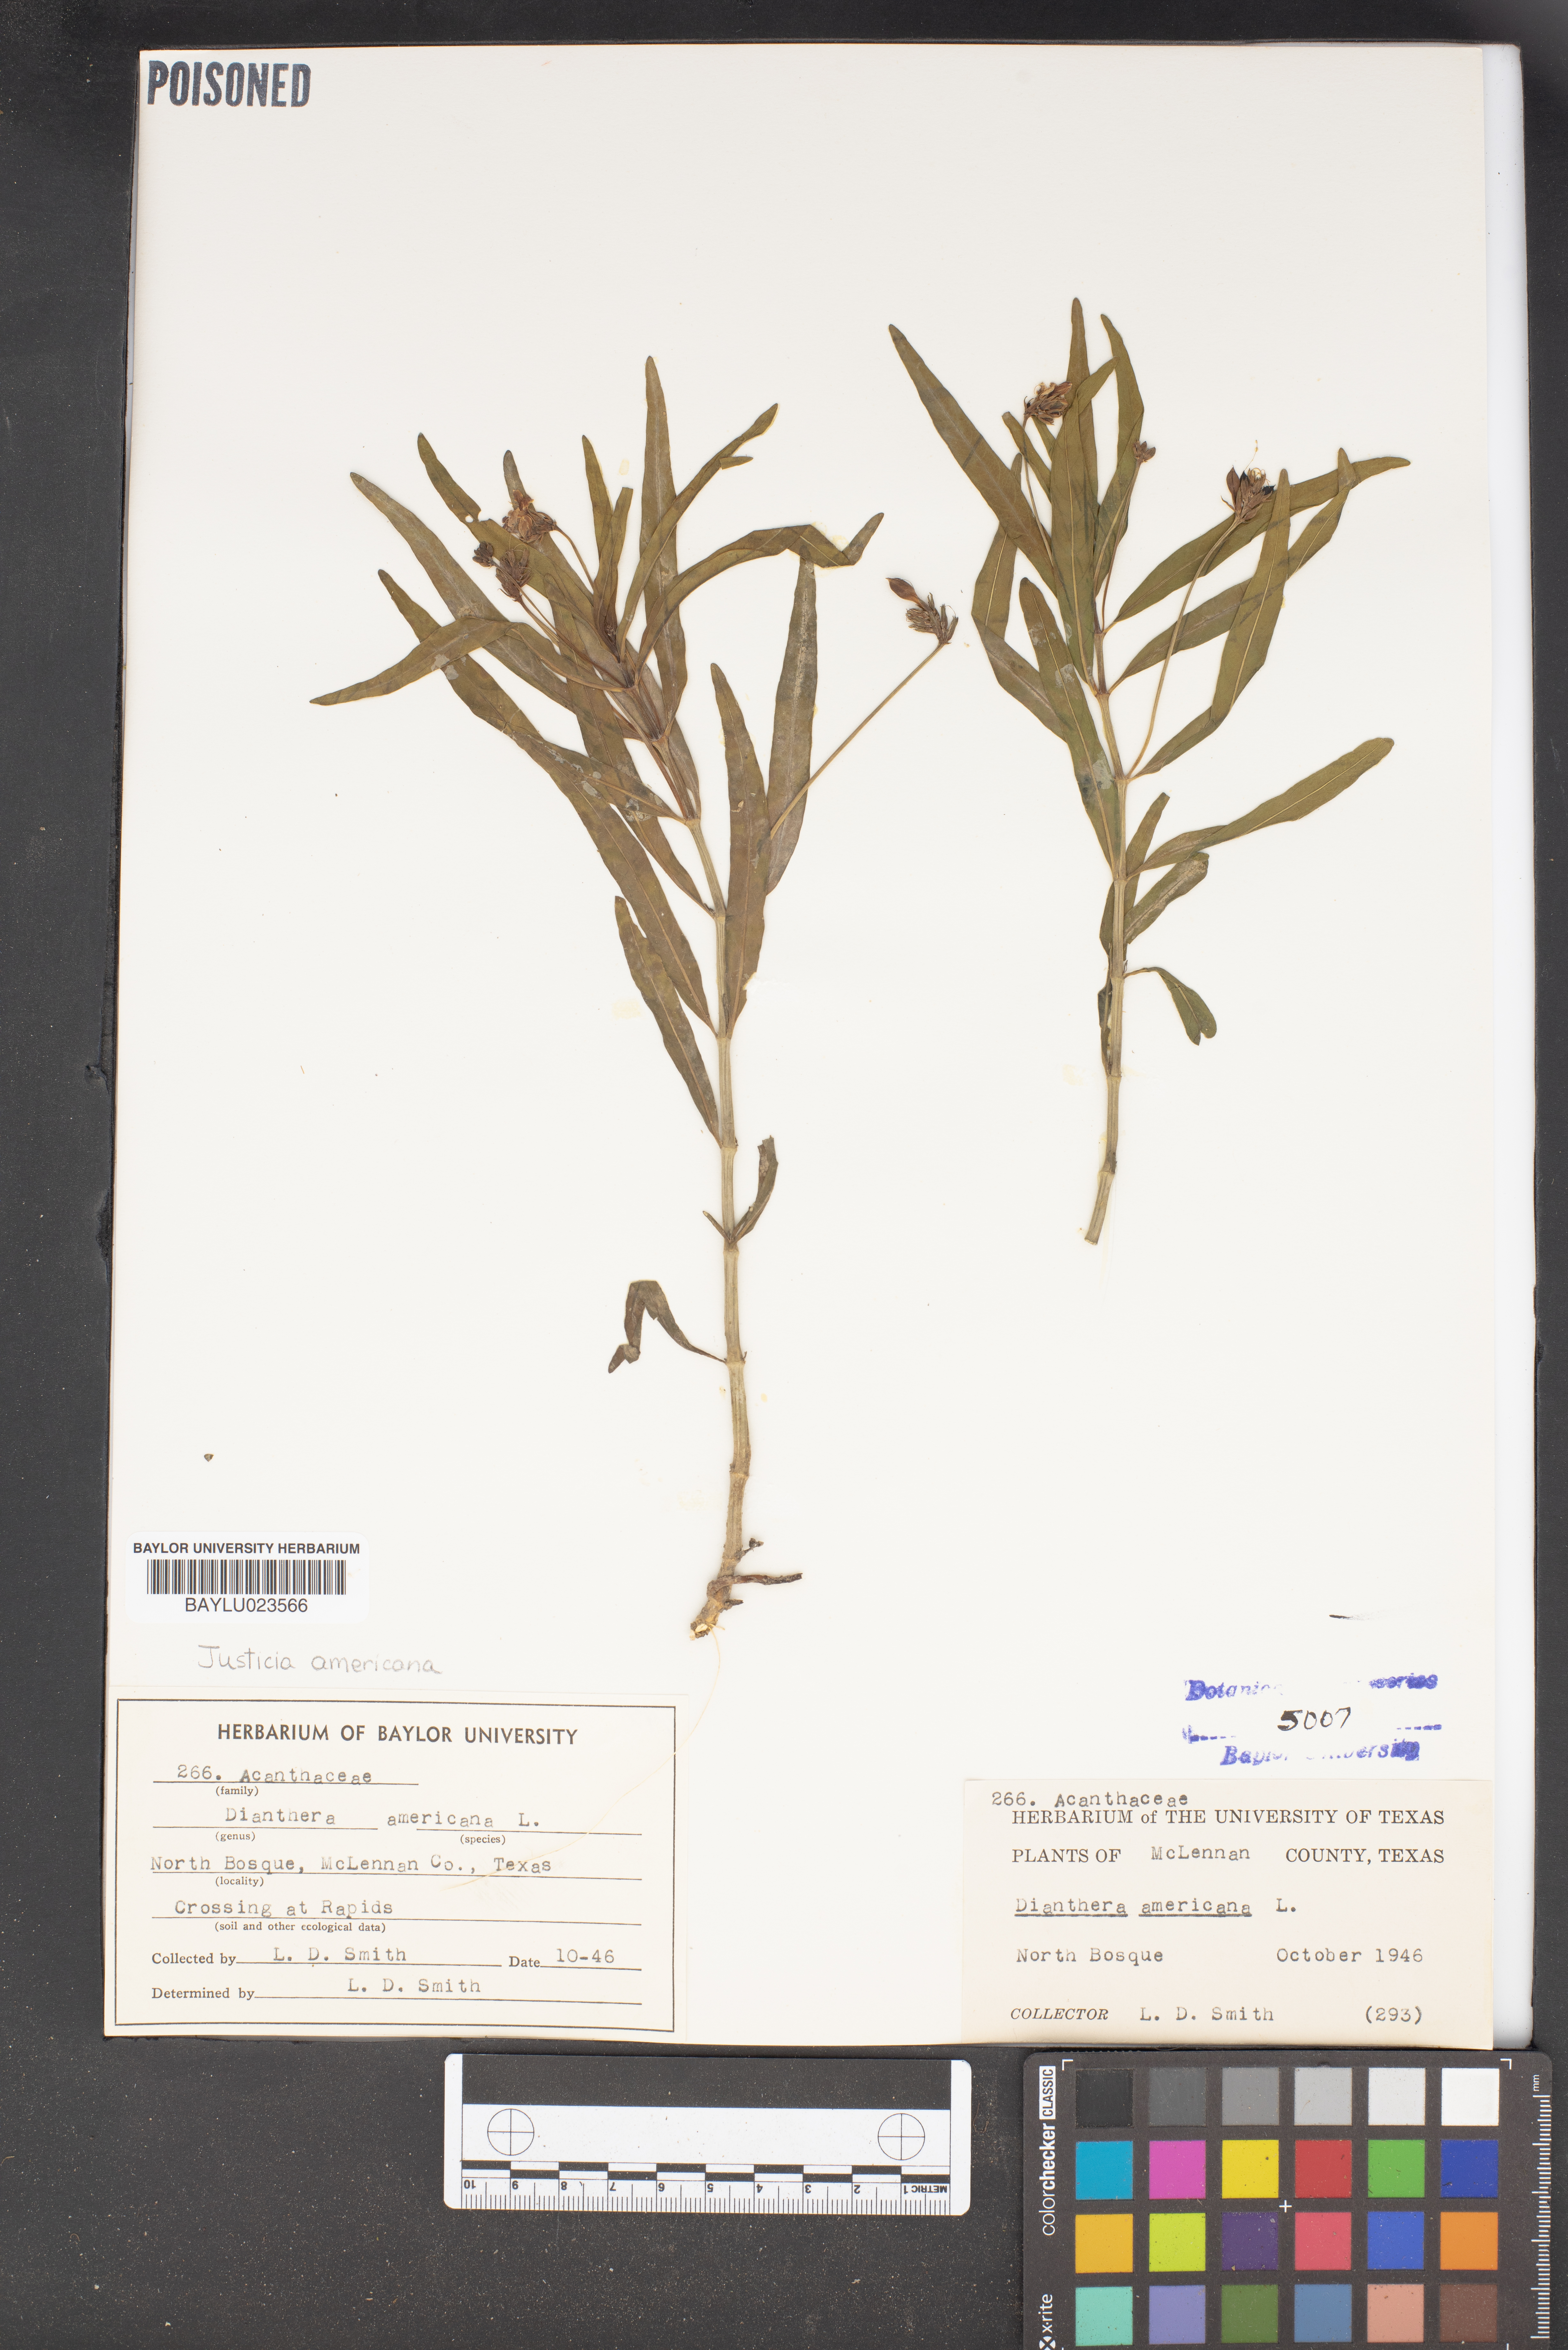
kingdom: Plantae
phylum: Tracheophyta
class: Magnoliopsida
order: Lamiales
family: Acanthaceae
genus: Rostellularia
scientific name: Rostellularia procumbens
